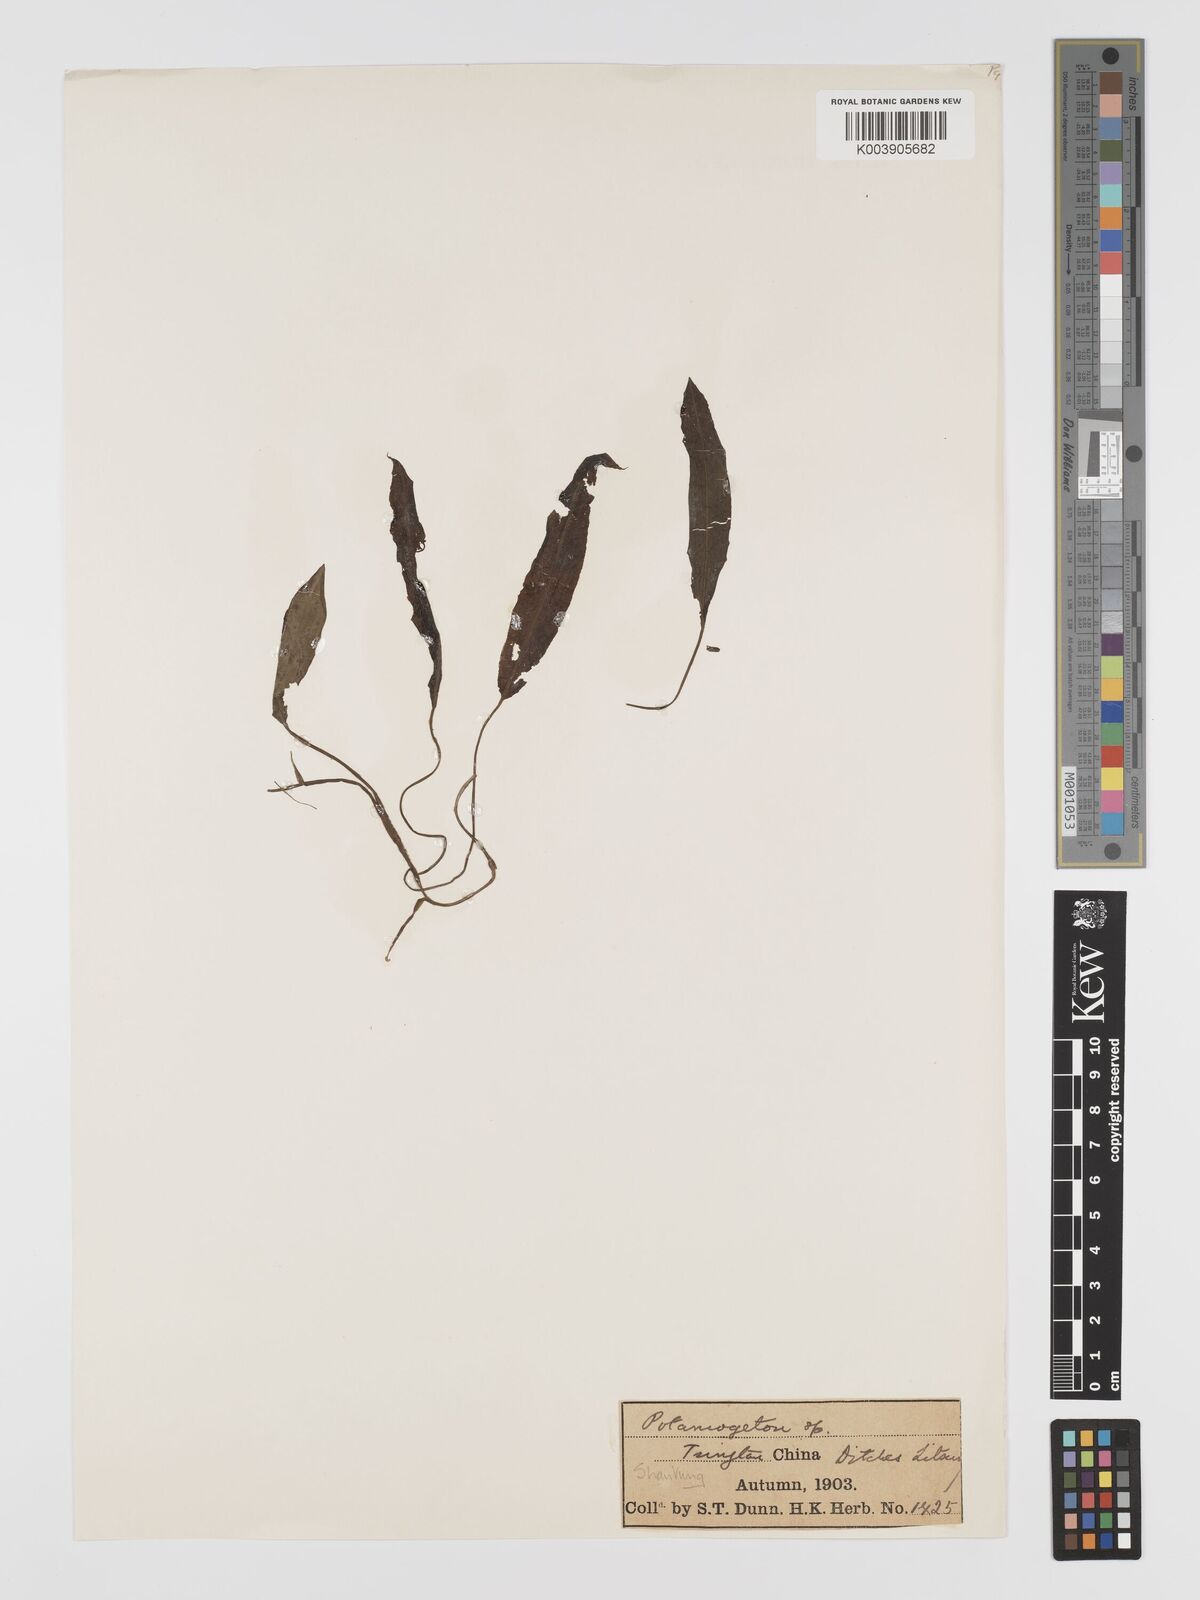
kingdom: Plantae
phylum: Tracheophyta
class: Liliopsida
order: Alismatales
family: Potamogetonaceae
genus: Potamogeton
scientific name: Potamogeton distinctus
